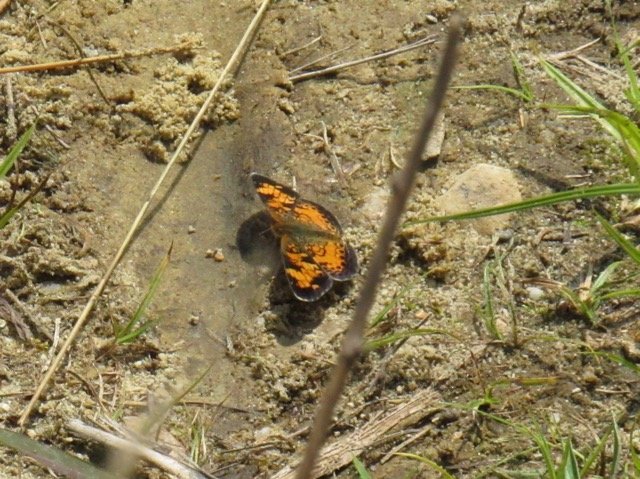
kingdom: Animalia
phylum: Arthropoda
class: Insecta
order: Lepidoptera
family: Nymphalidae
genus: Phyciodes
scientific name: Phyciodes tharos
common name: Pearl Crescent
